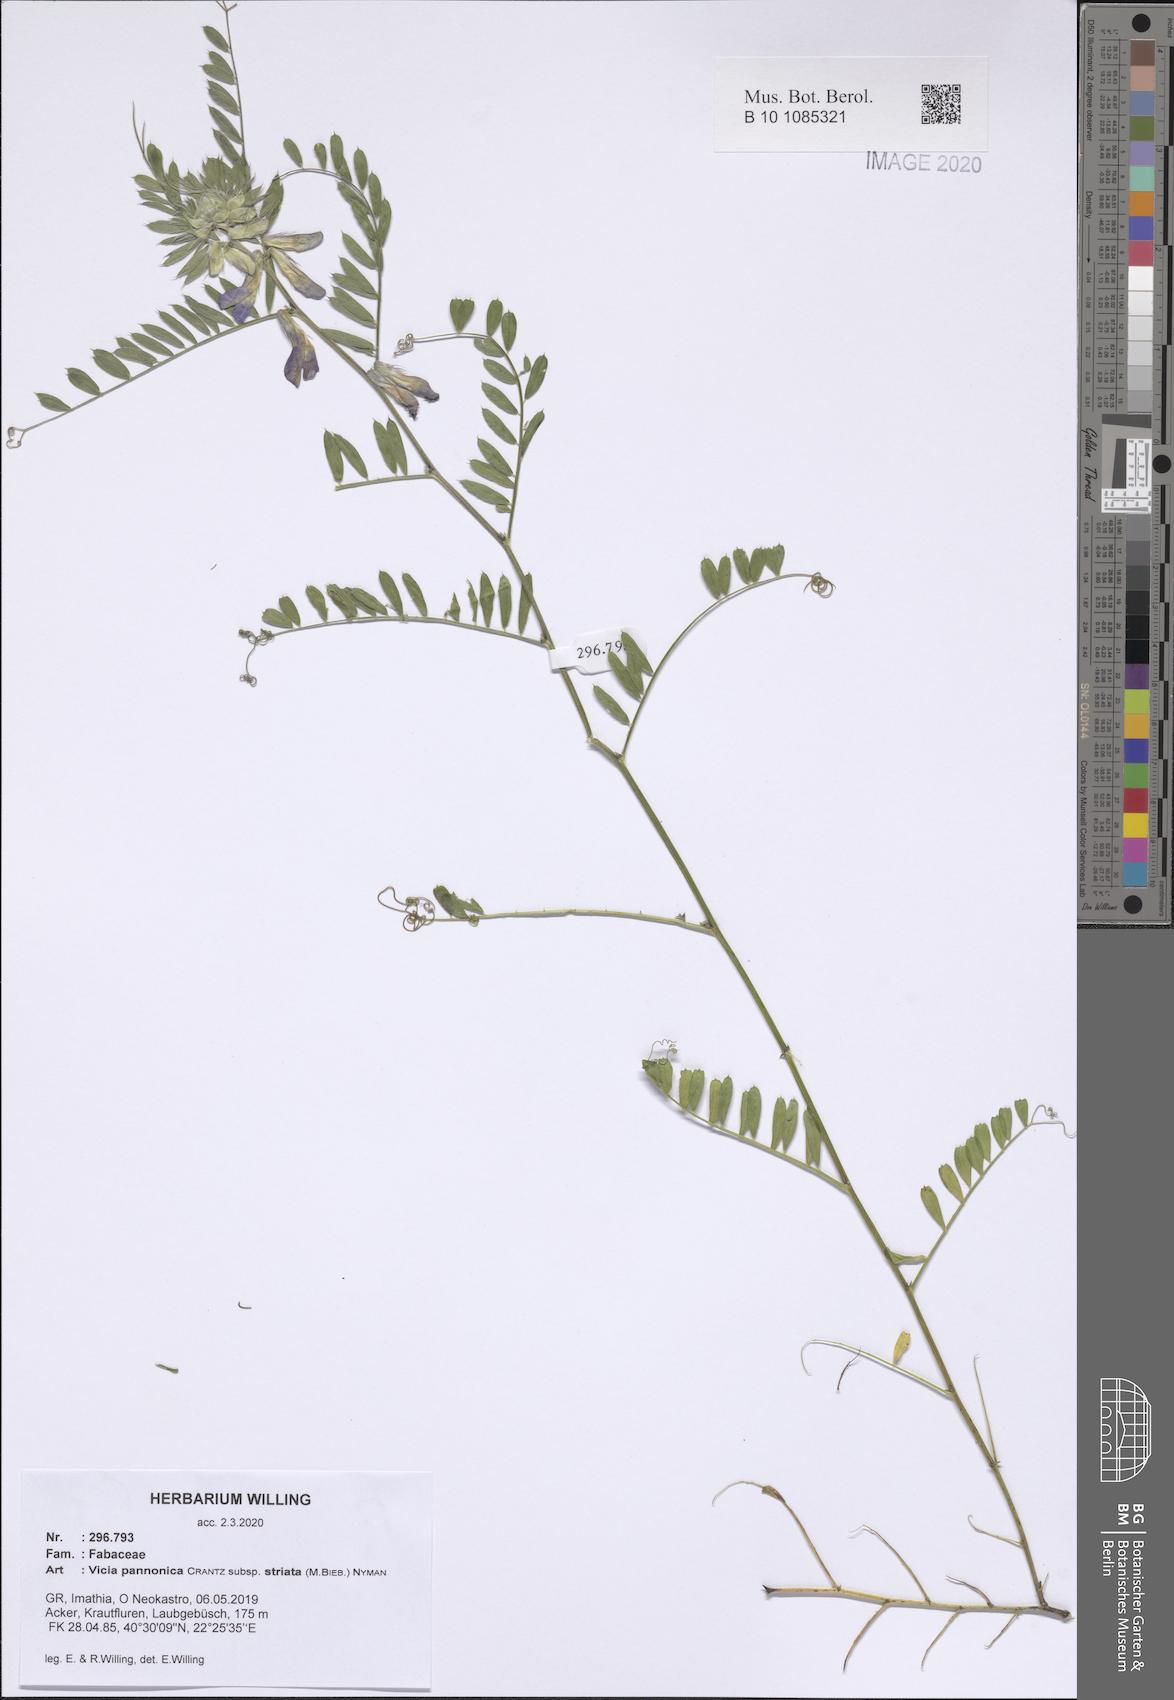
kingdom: Plantae
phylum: Tracheophyta
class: Magnoliopsida
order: Fabales
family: Fabaceae
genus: Vicia
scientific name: Vicia pannonica
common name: Hungarian vetch
